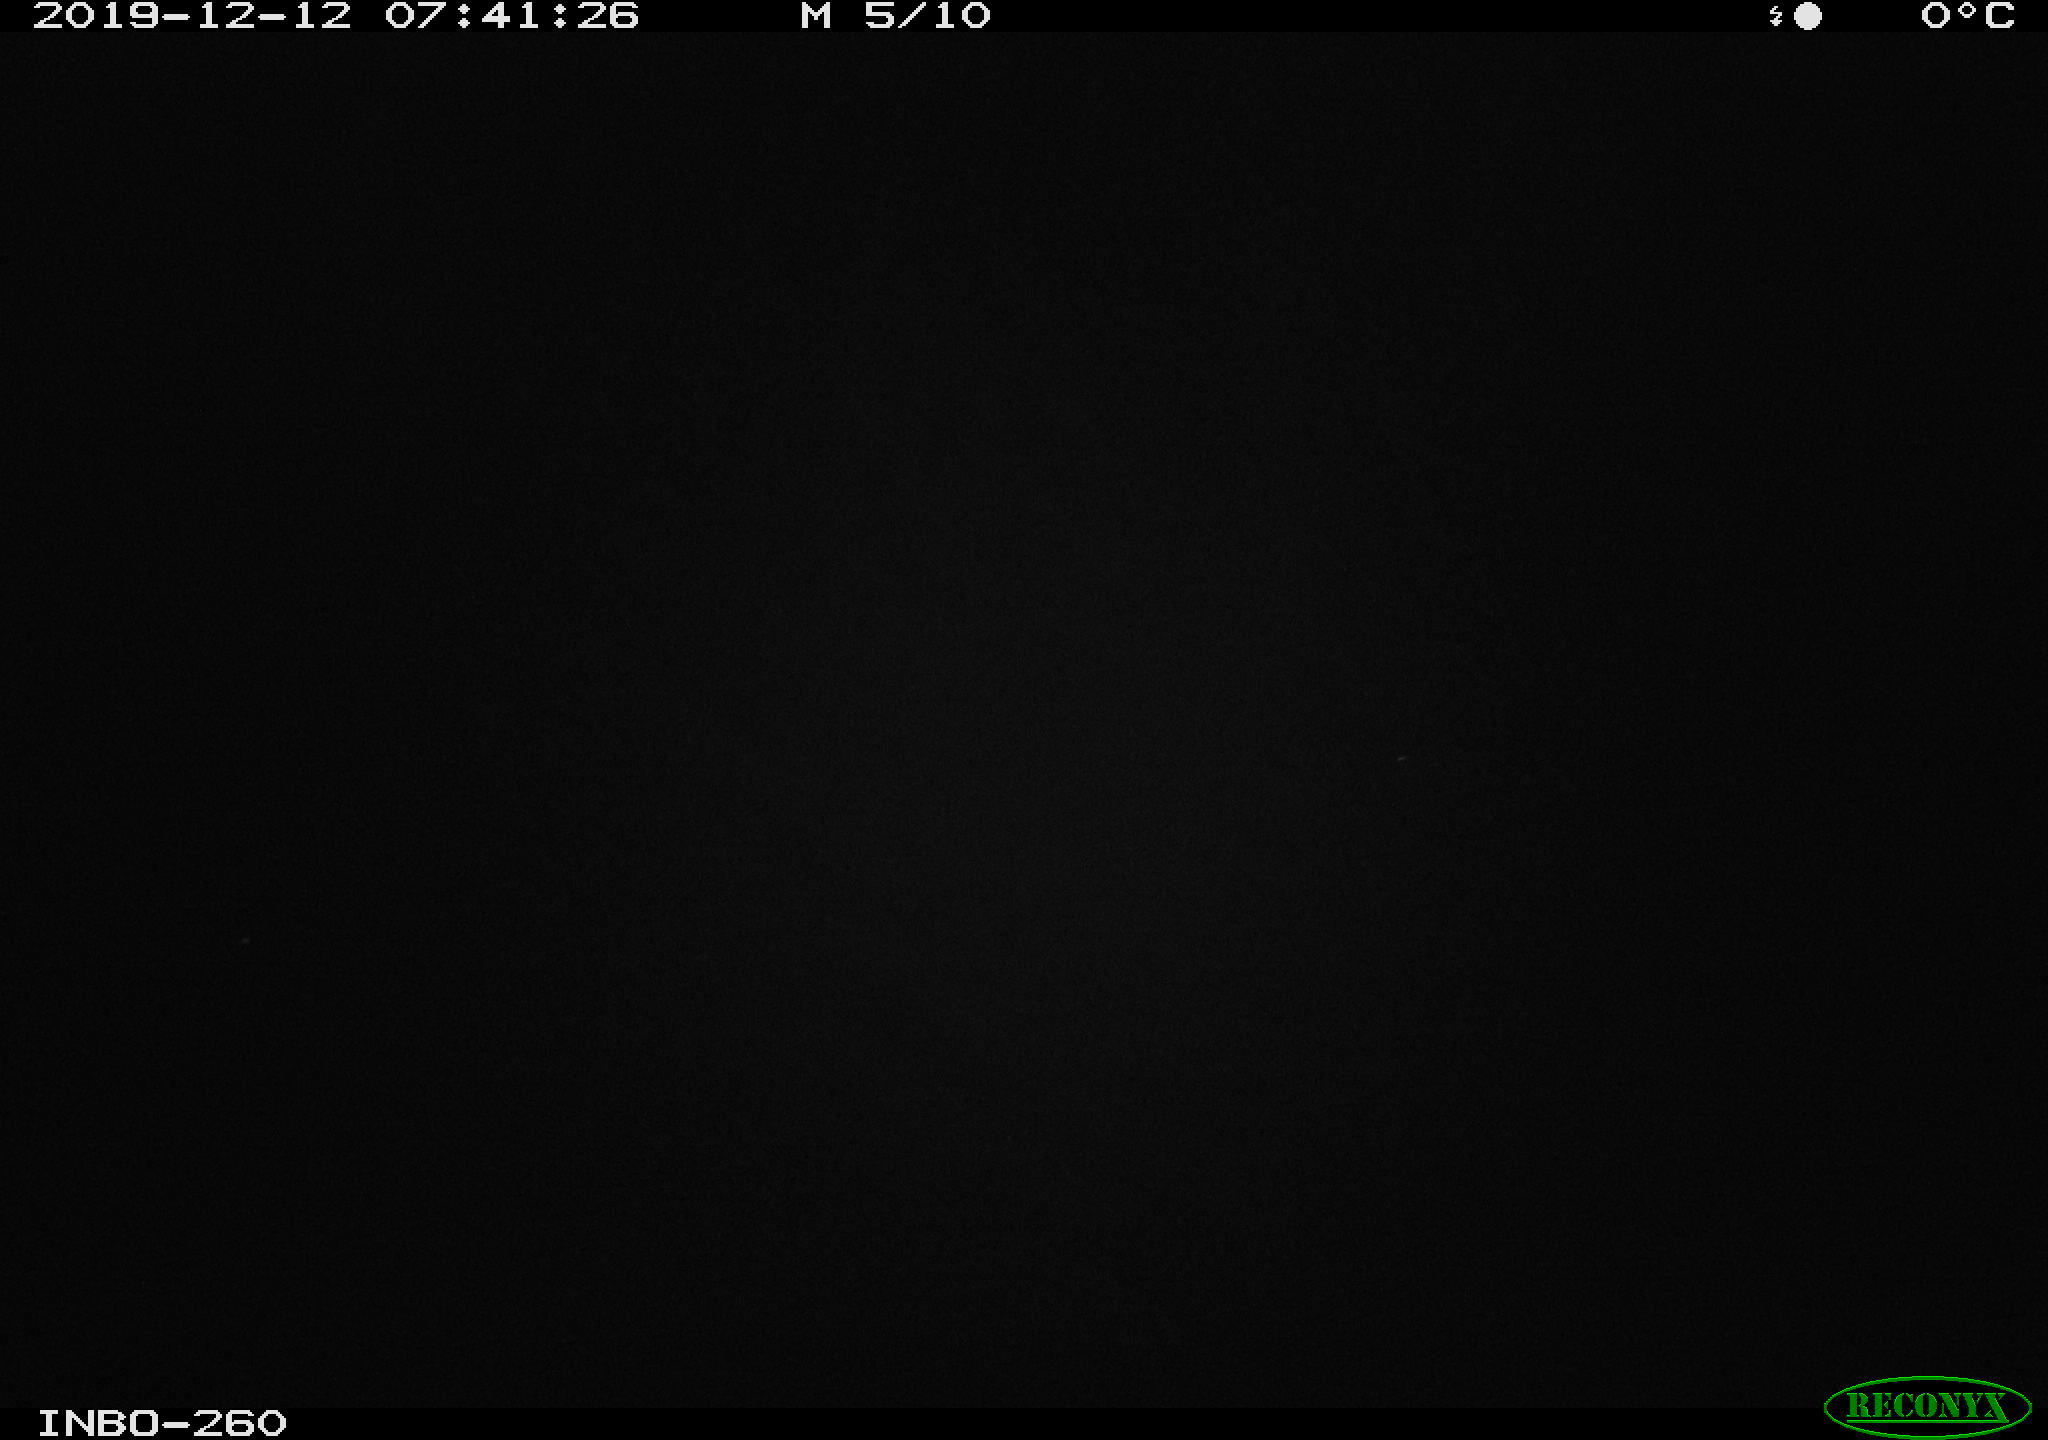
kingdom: Animalia
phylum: Chordata
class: Aves
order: Anseriformes
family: Anatidae
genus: Anas
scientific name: Anas platyrhynchos
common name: Mallard
